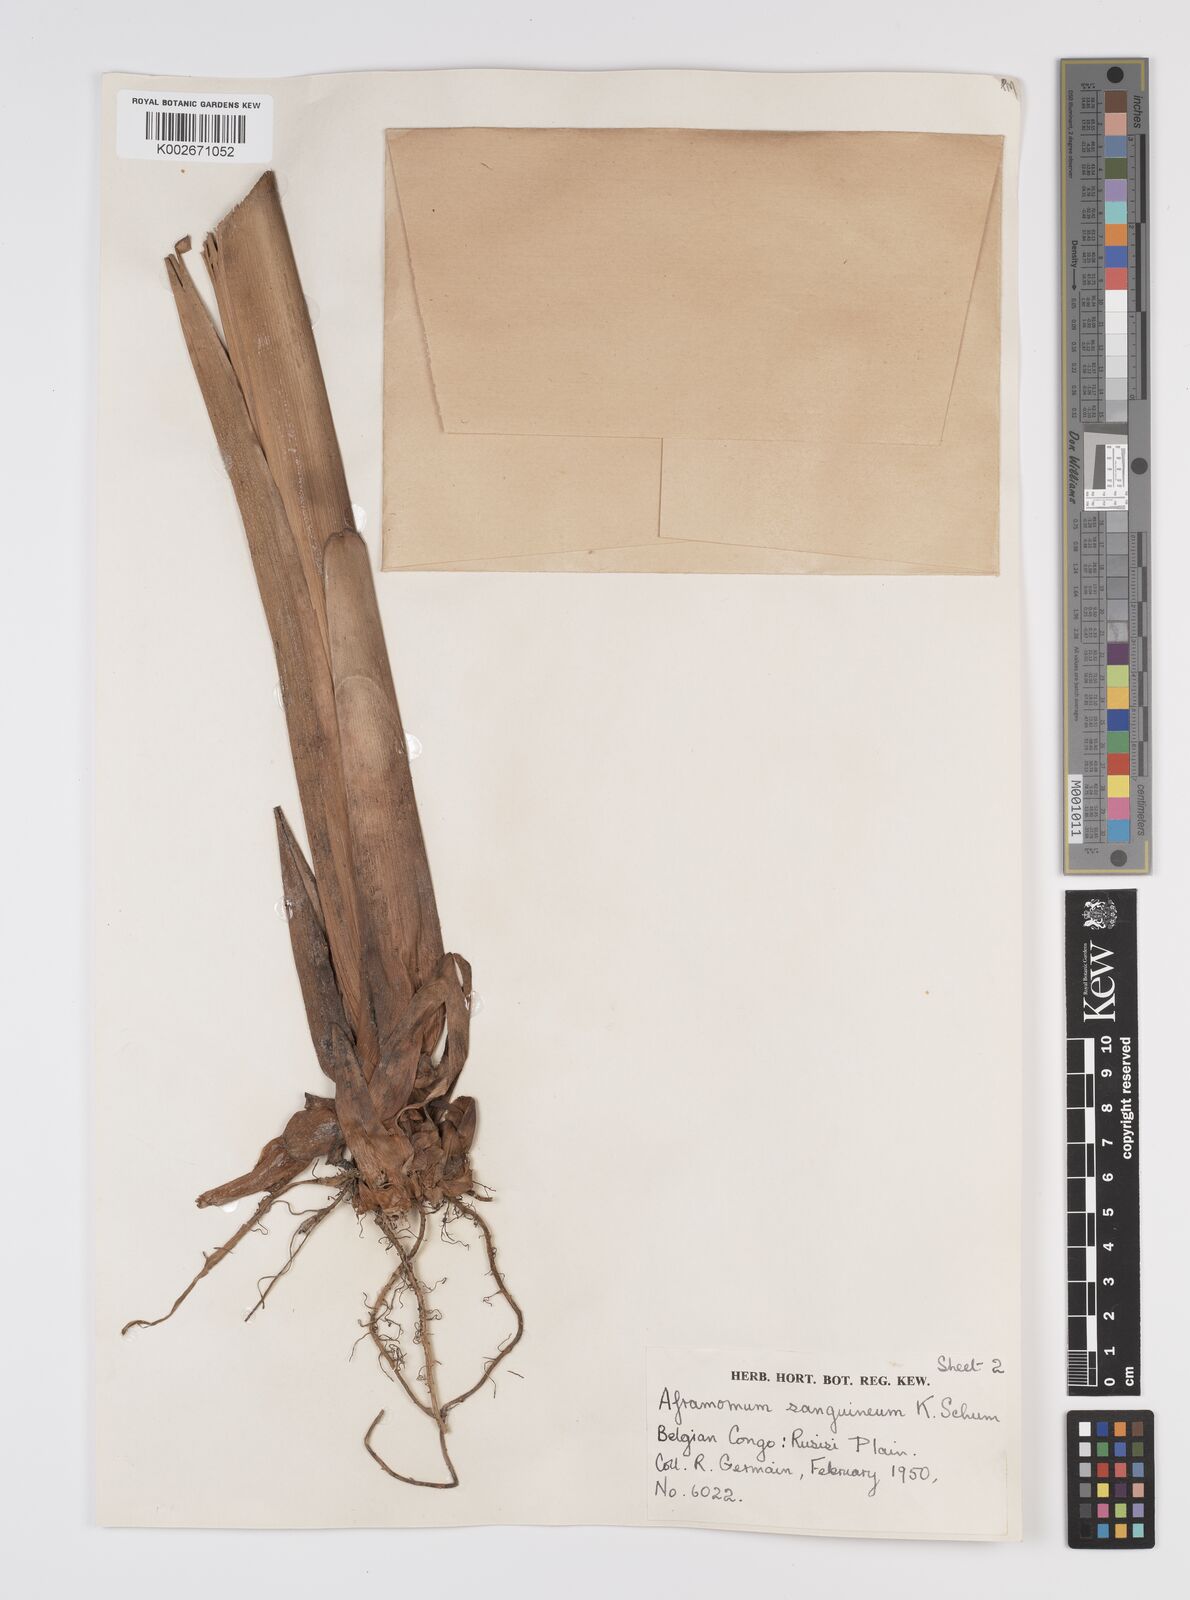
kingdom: Plantae
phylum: Tracheophyta
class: Liliopsida
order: Zingiberales
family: Zingiberaceae
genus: Aframomum
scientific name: Aframomum angustifolium
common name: Guinea grains
